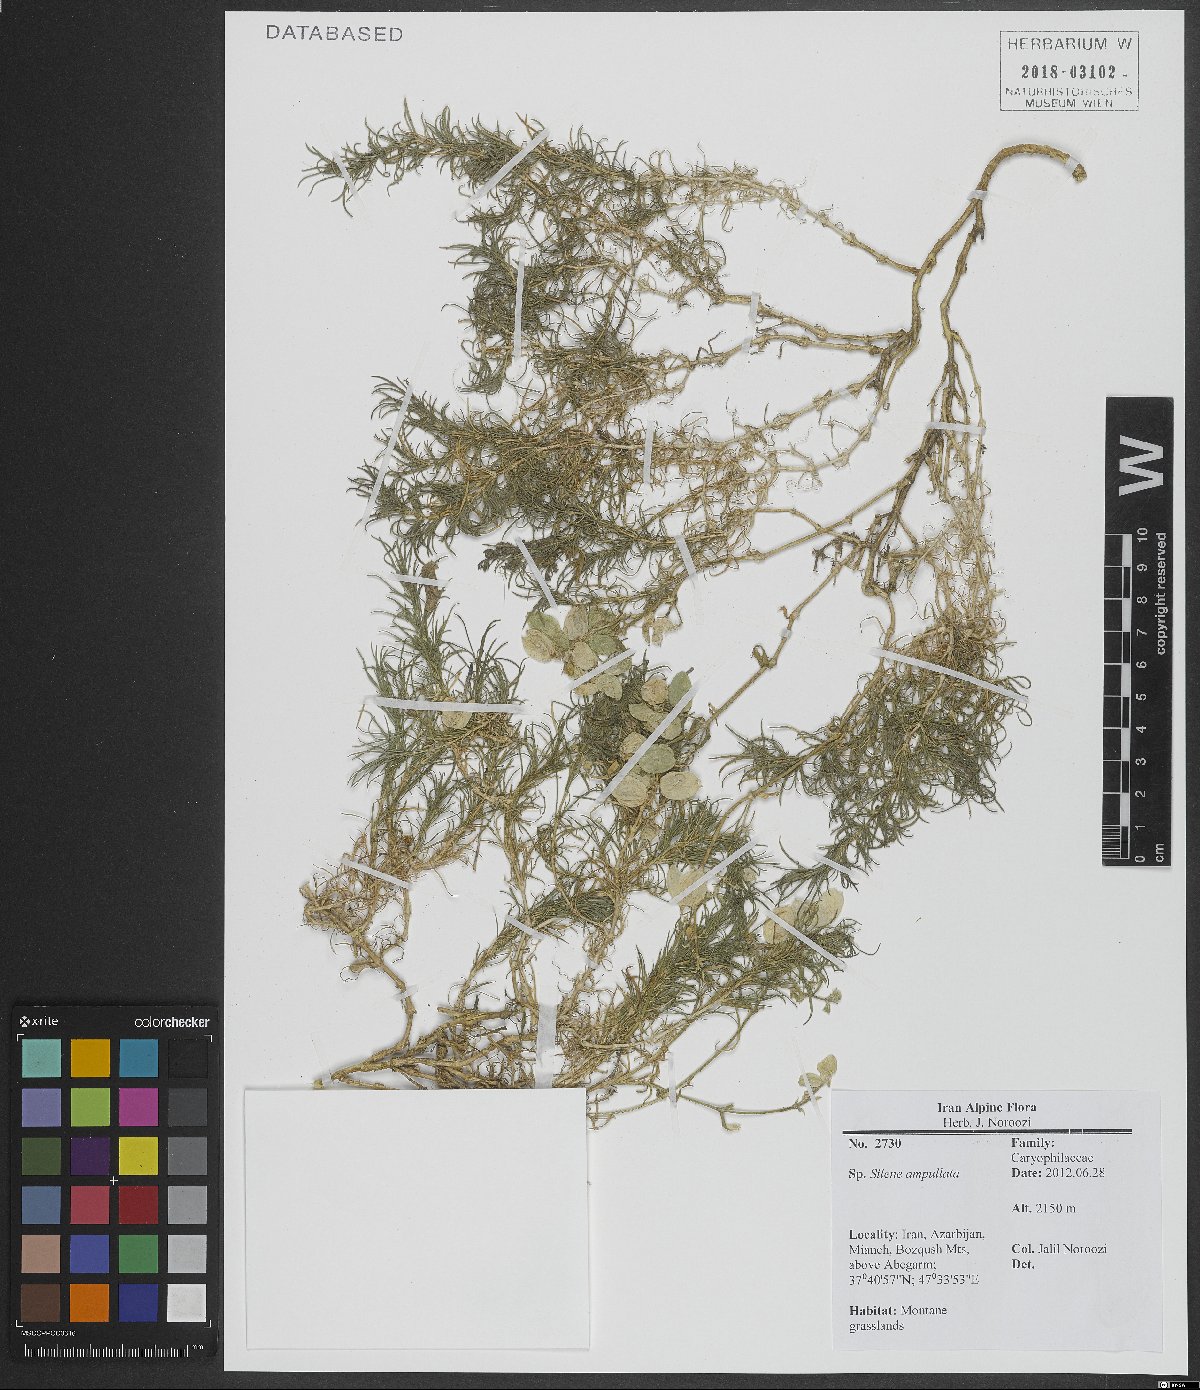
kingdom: Plantae
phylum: Tracheophyta
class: Magnoliopsida
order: Caryophyllales
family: Caryophyllaceae
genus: Silene
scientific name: Silene ampullata
